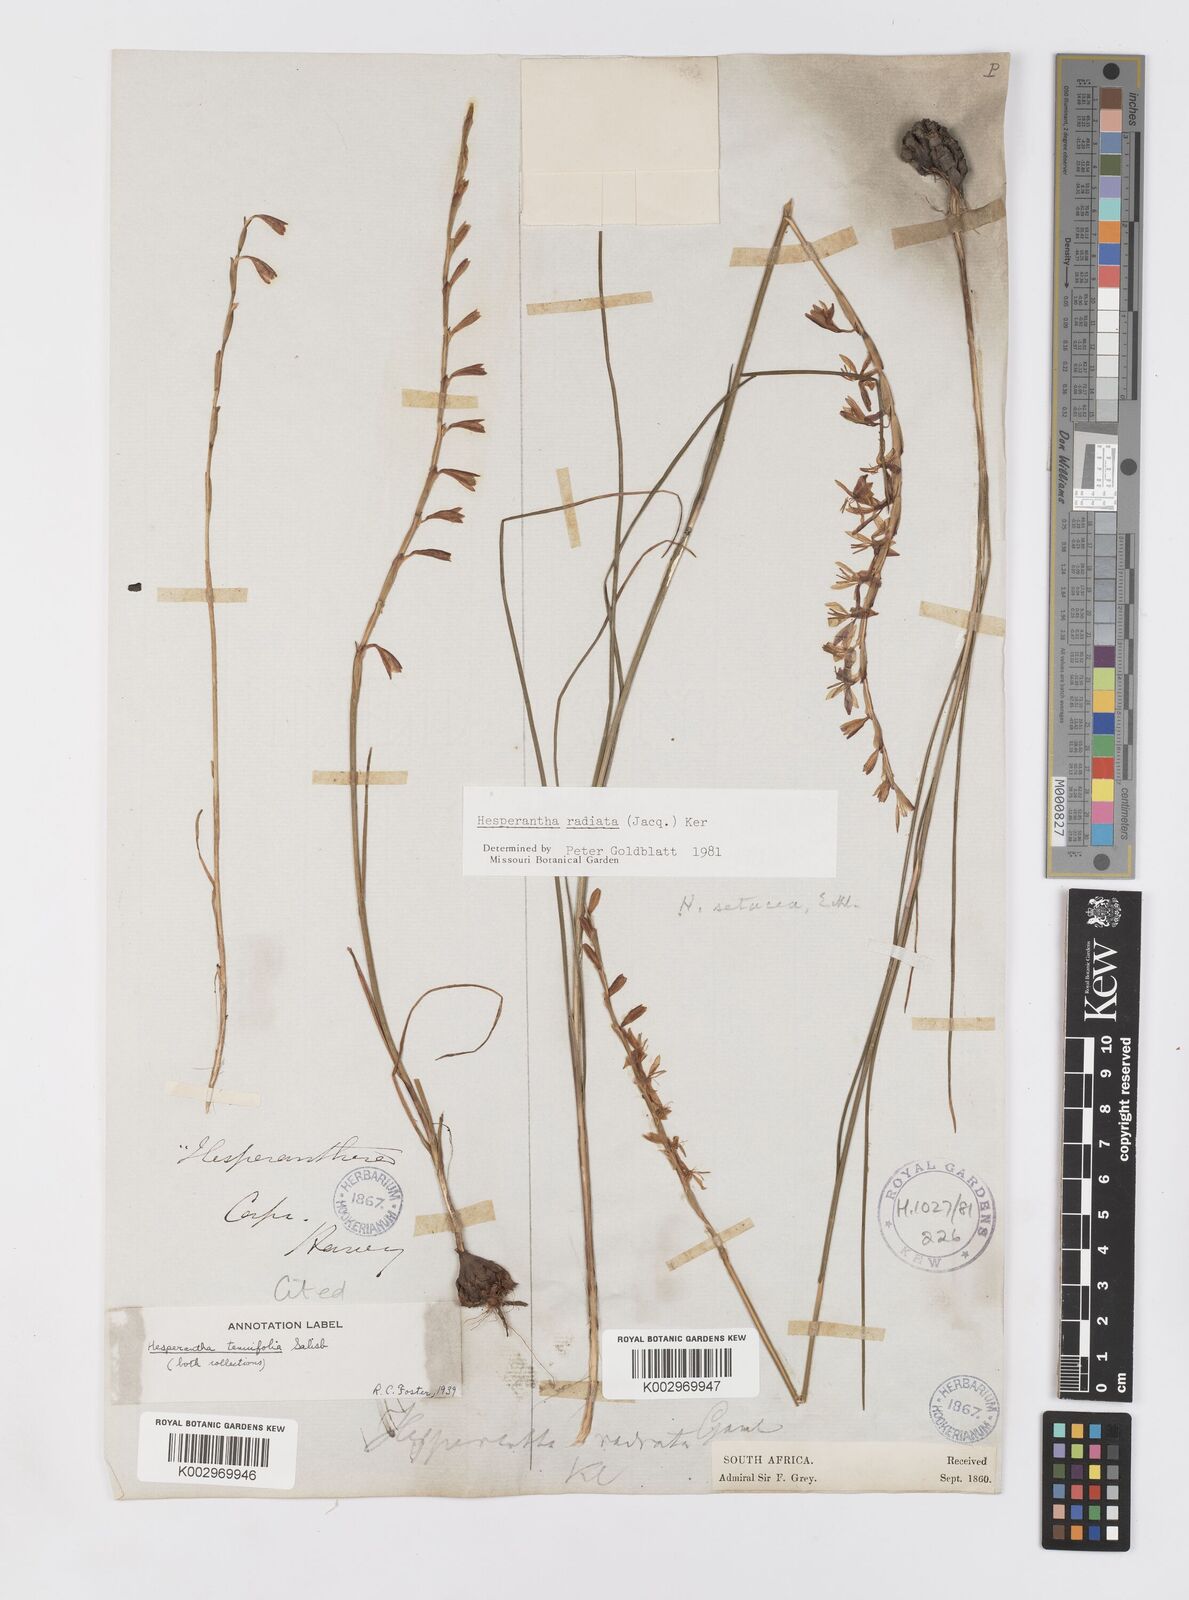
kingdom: Plantae
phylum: Tracheophyta
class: Liliopsida
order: Asparagales
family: Iridaceae
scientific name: Iridaceae
